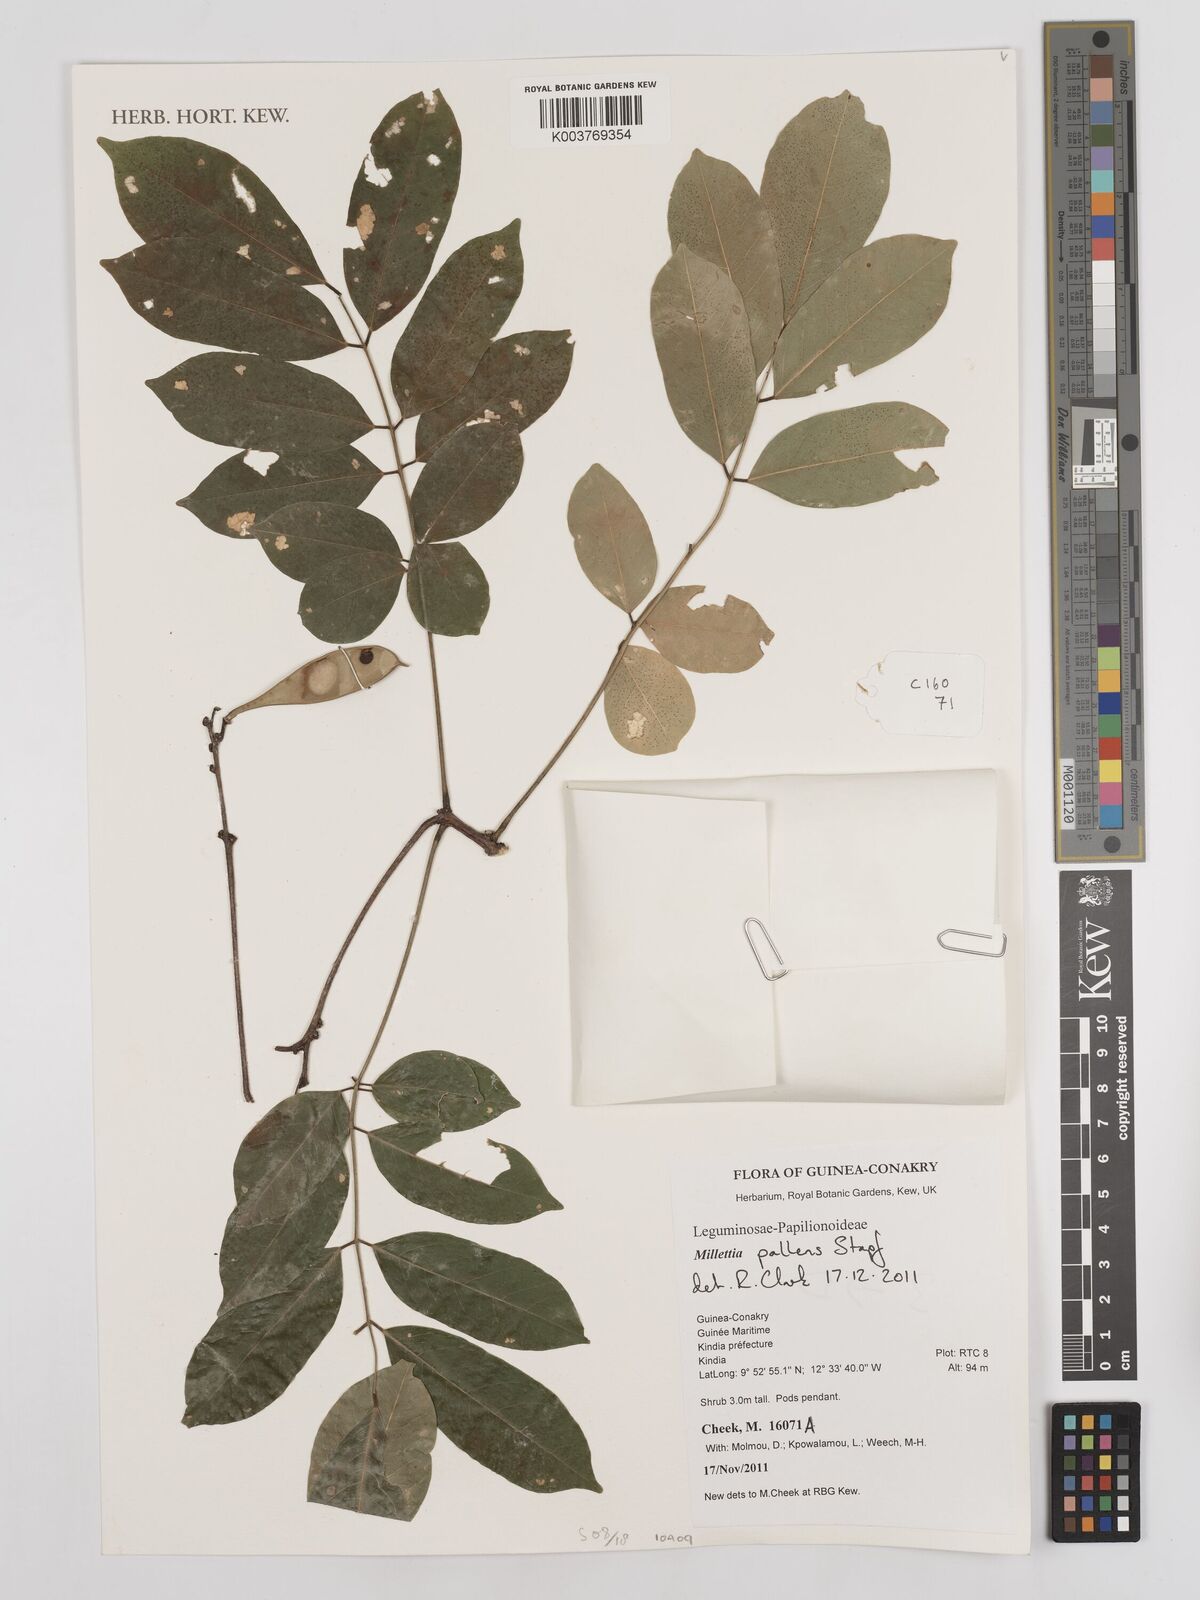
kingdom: Plantae
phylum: Tracheophyta
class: Magnoliopsida
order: Fabales
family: Fabaceae
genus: Millettia
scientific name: Millettia pallens
